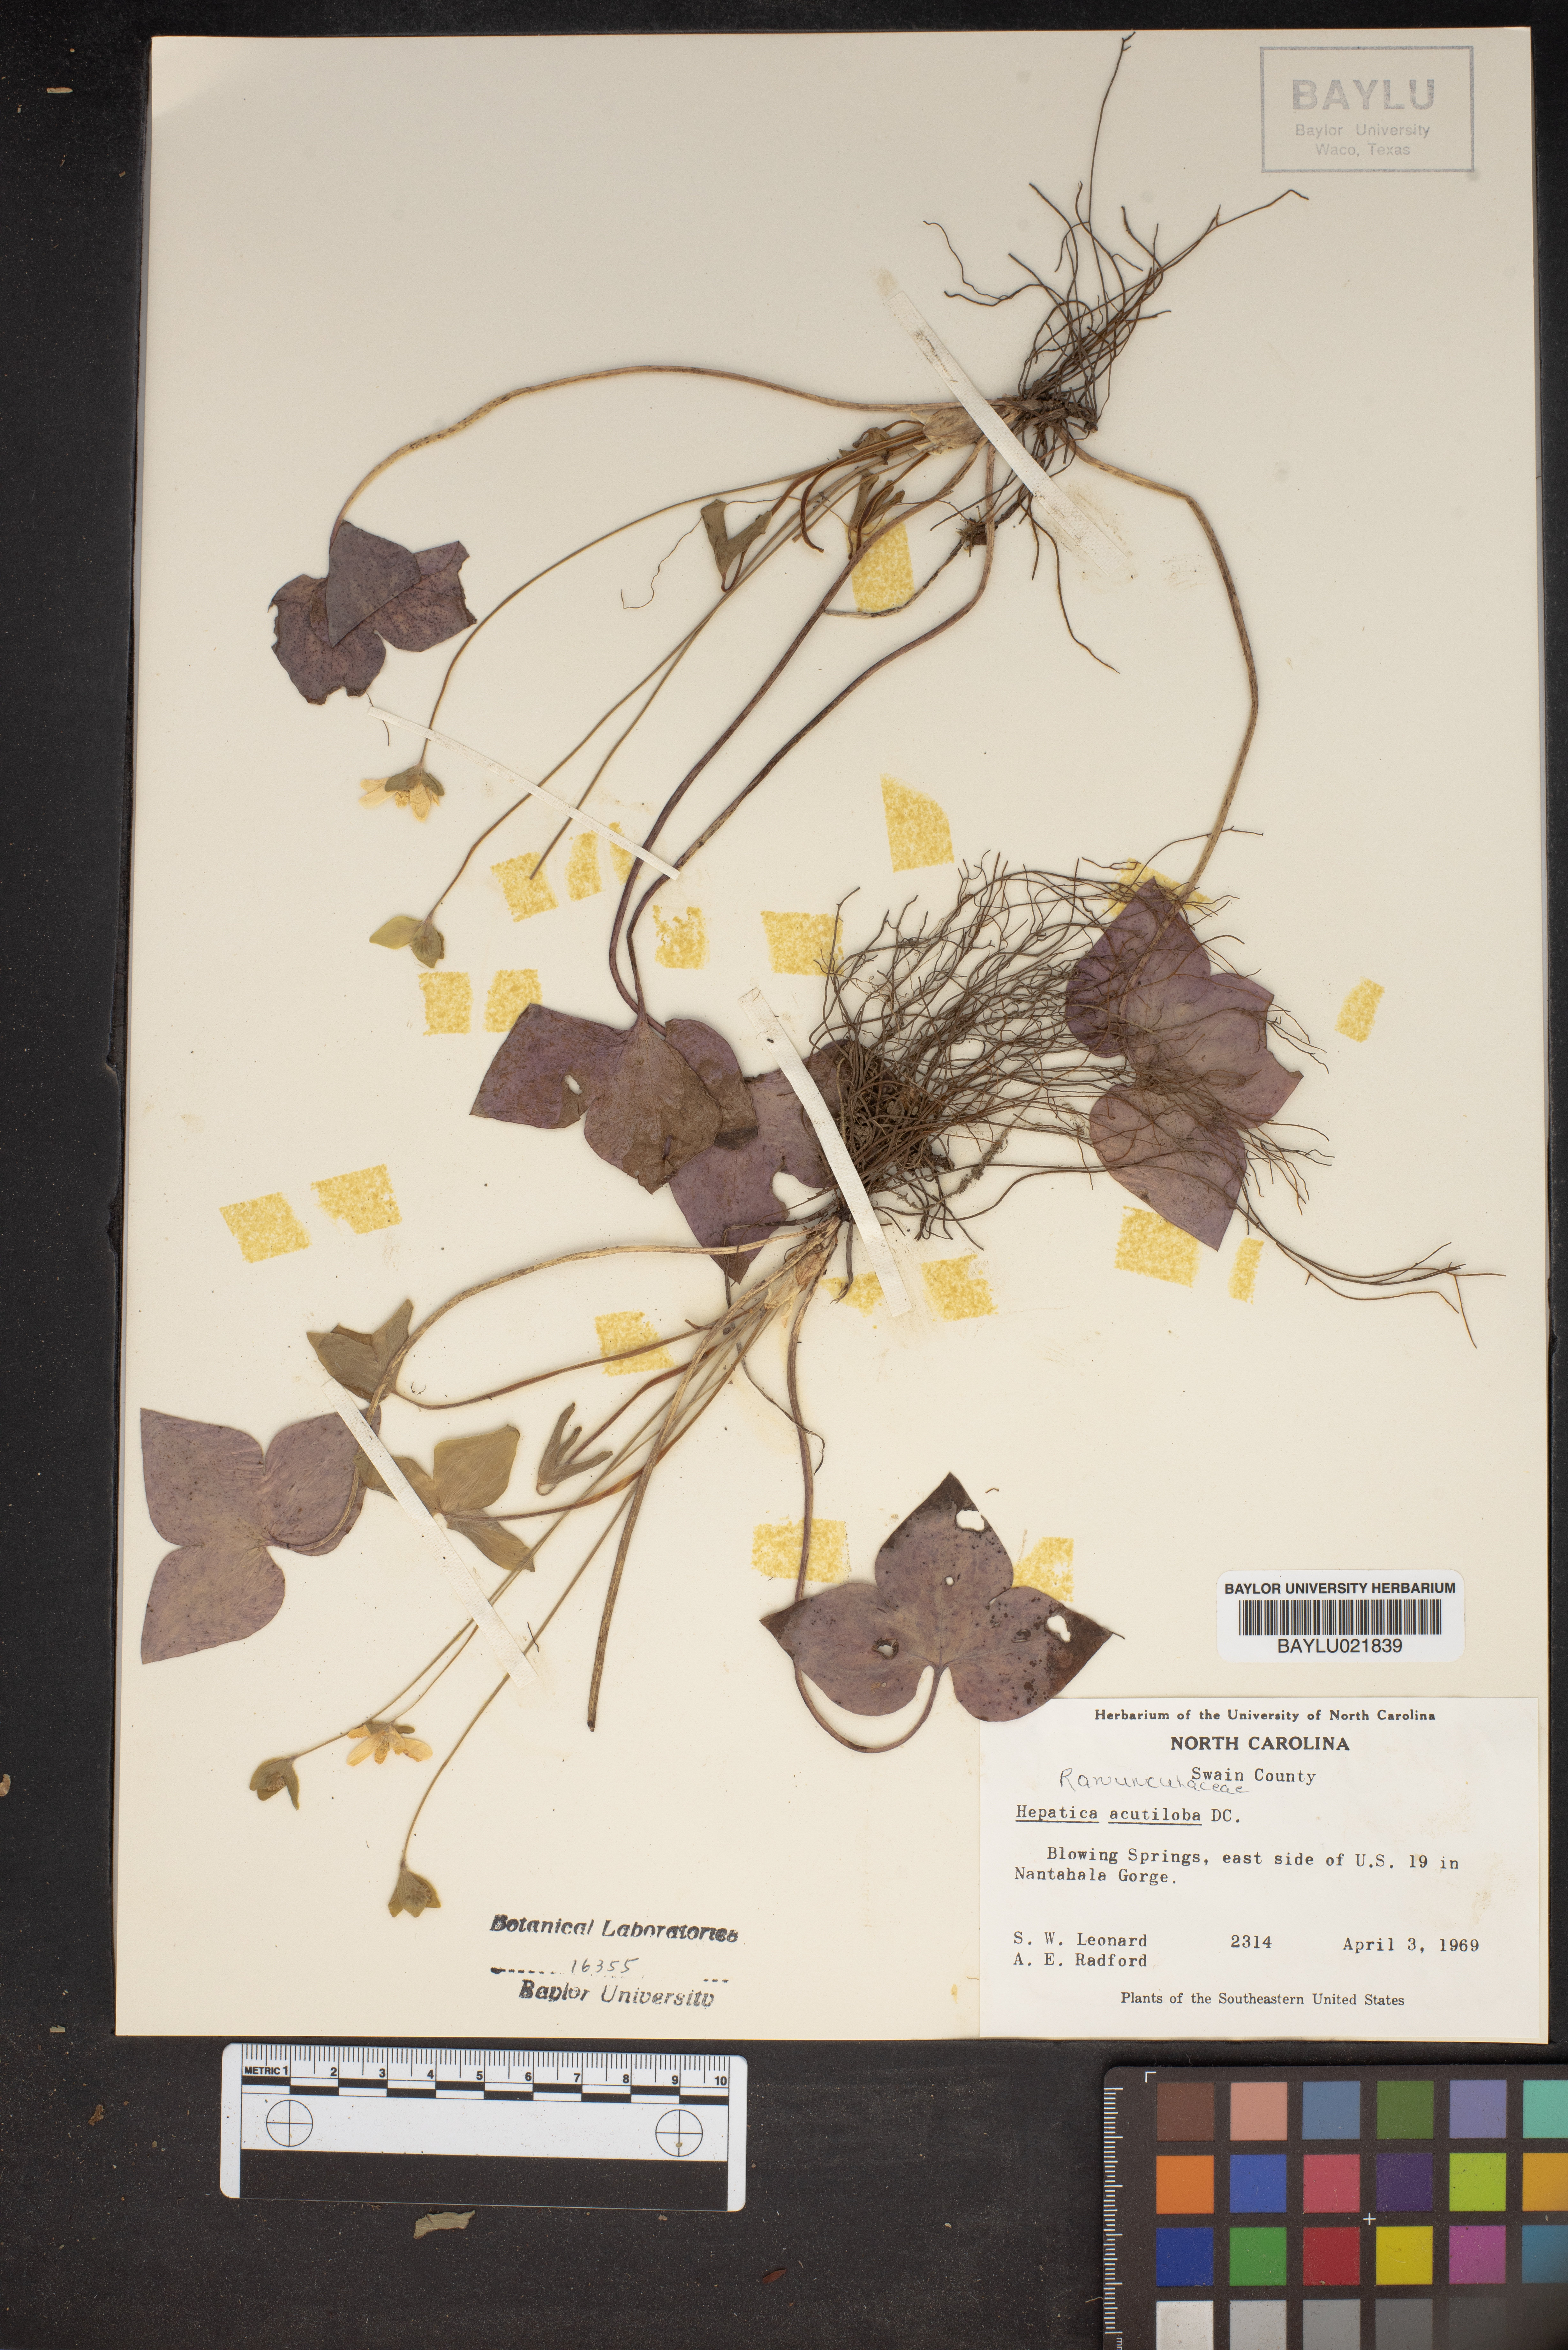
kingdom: Plantae
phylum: Tracheophyta
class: Magnoliopsida
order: Ranunculales
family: Ranunculaceae
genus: Hepatica
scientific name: Hepatica acutiloba
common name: Sharp-lobed hepatica
